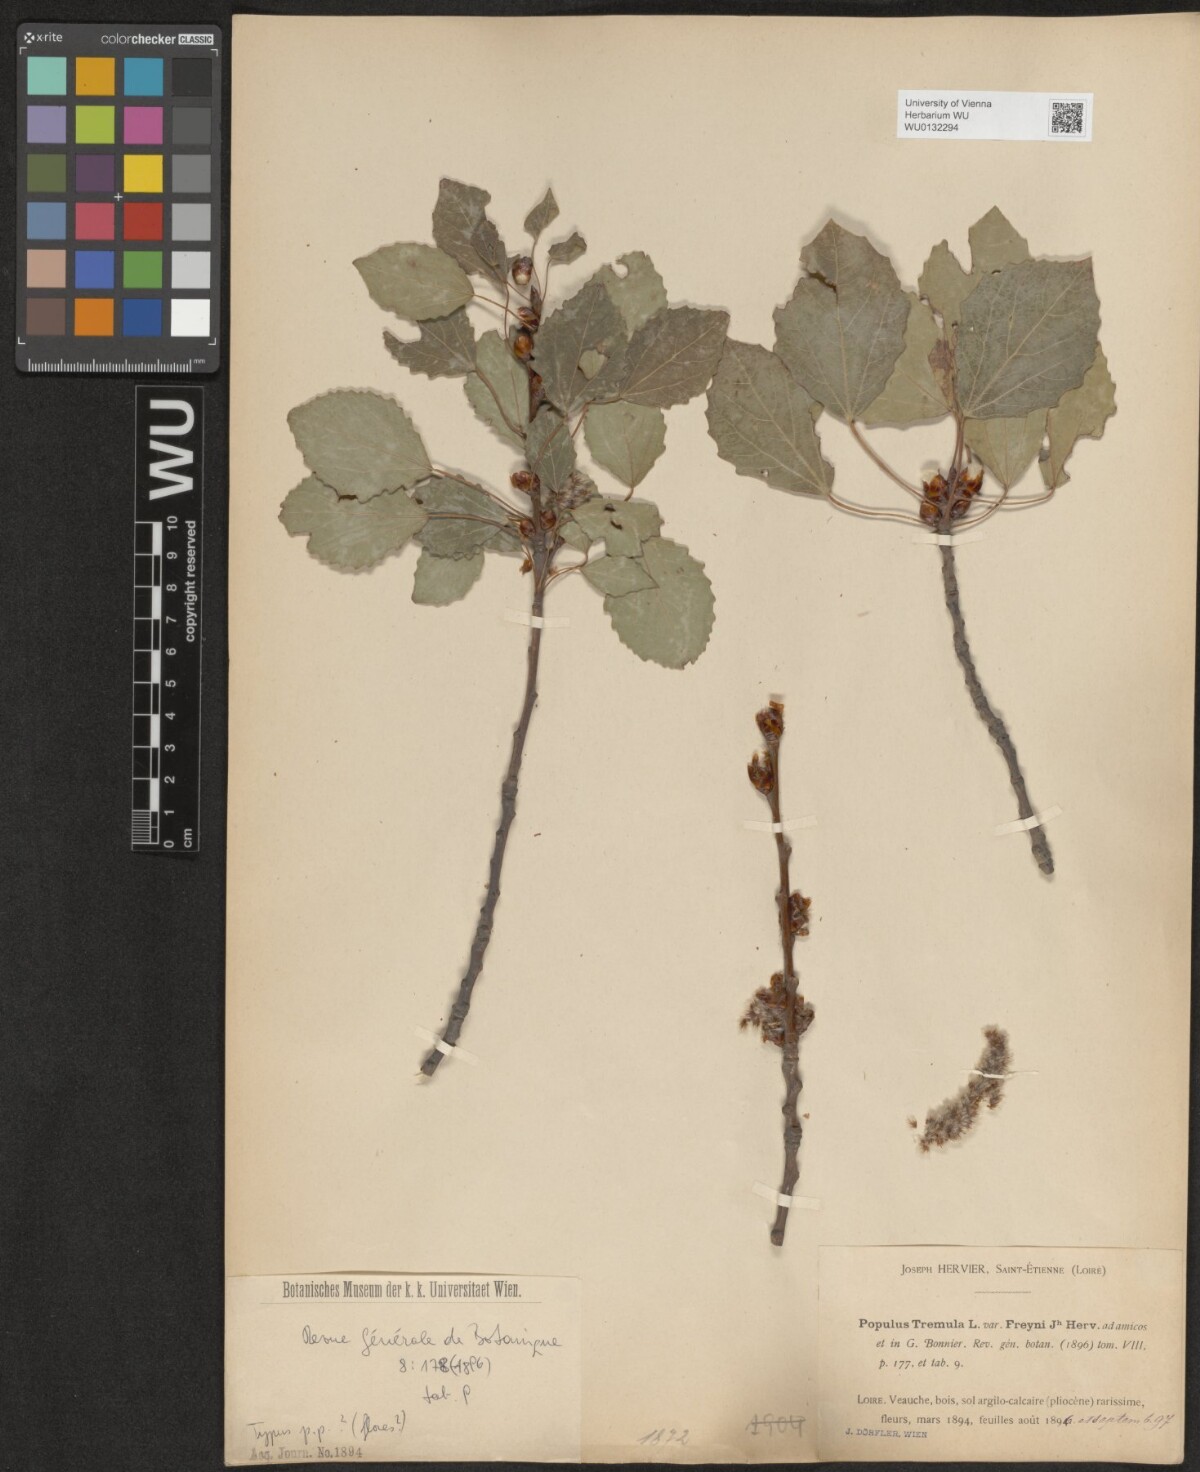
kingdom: Plantae
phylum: Tracheophyta
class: Magnoliopsida
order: Malpighiales
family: Salicaceae
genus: Populus
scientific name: Populus tremula
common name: European aspen
